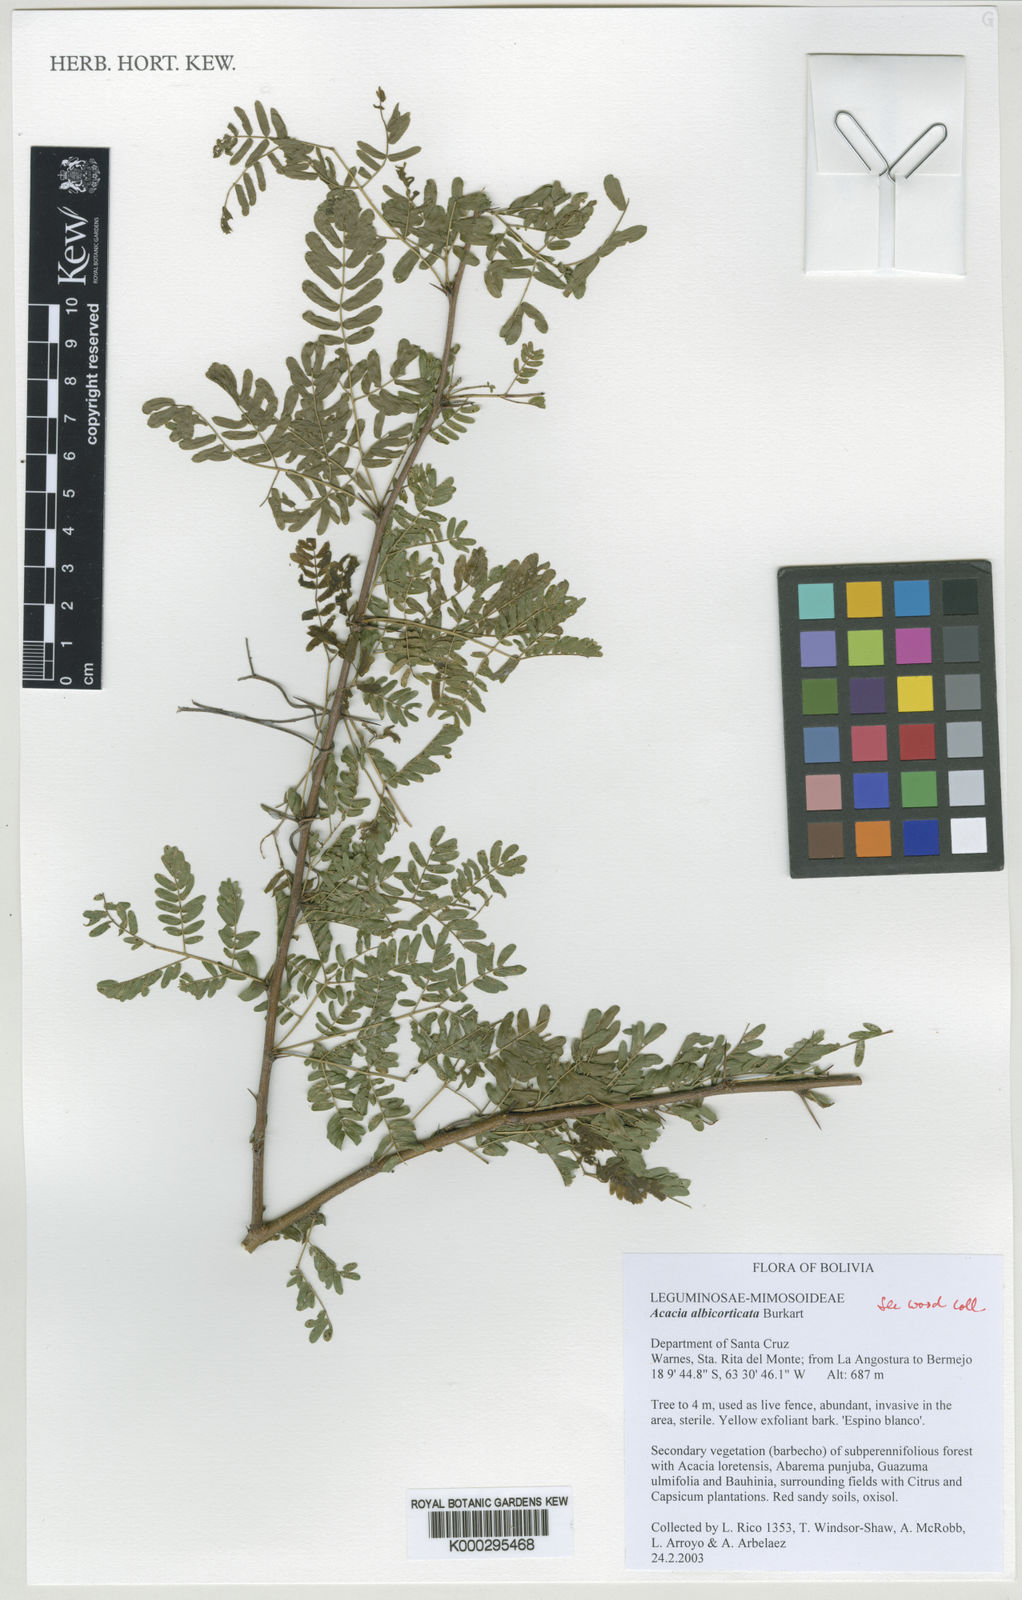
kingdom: Plantae
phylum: Tracheophyta
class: Magnoliopsida
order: Fabales
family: Fabaceae
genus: Vachellia
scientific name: Vachellia albicorticata
